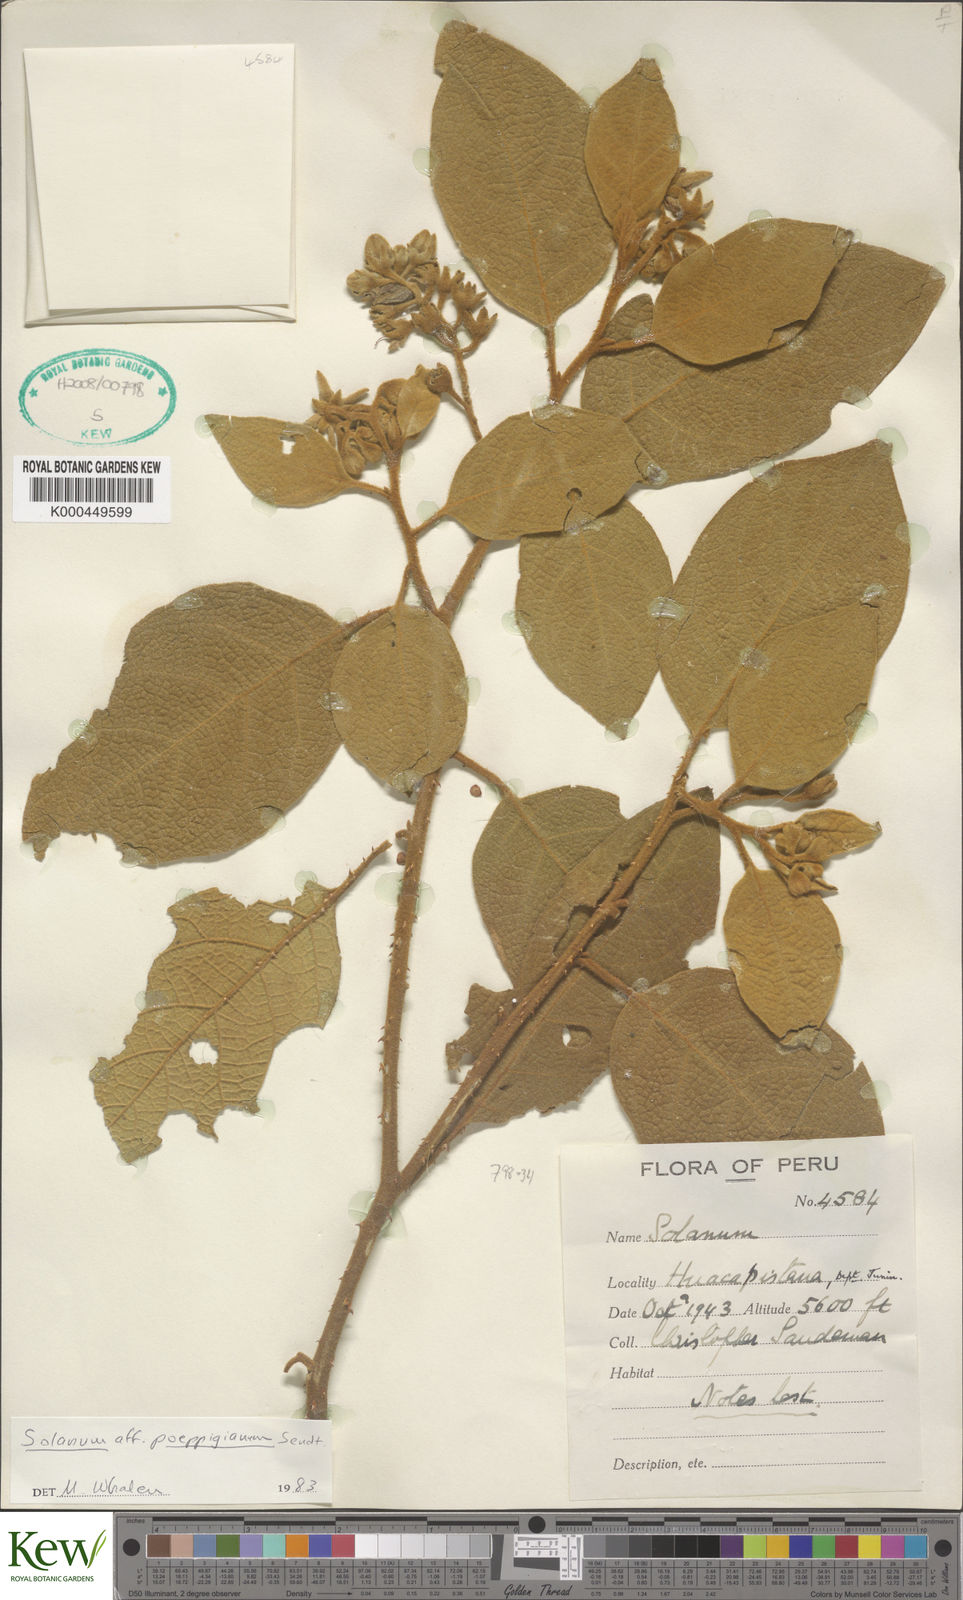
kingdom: Plantae
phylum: Tracheophyta
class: Magnoliopsida
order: Solanales
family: Solanaceae
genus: Solanum
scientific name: Solanum valdiviense
